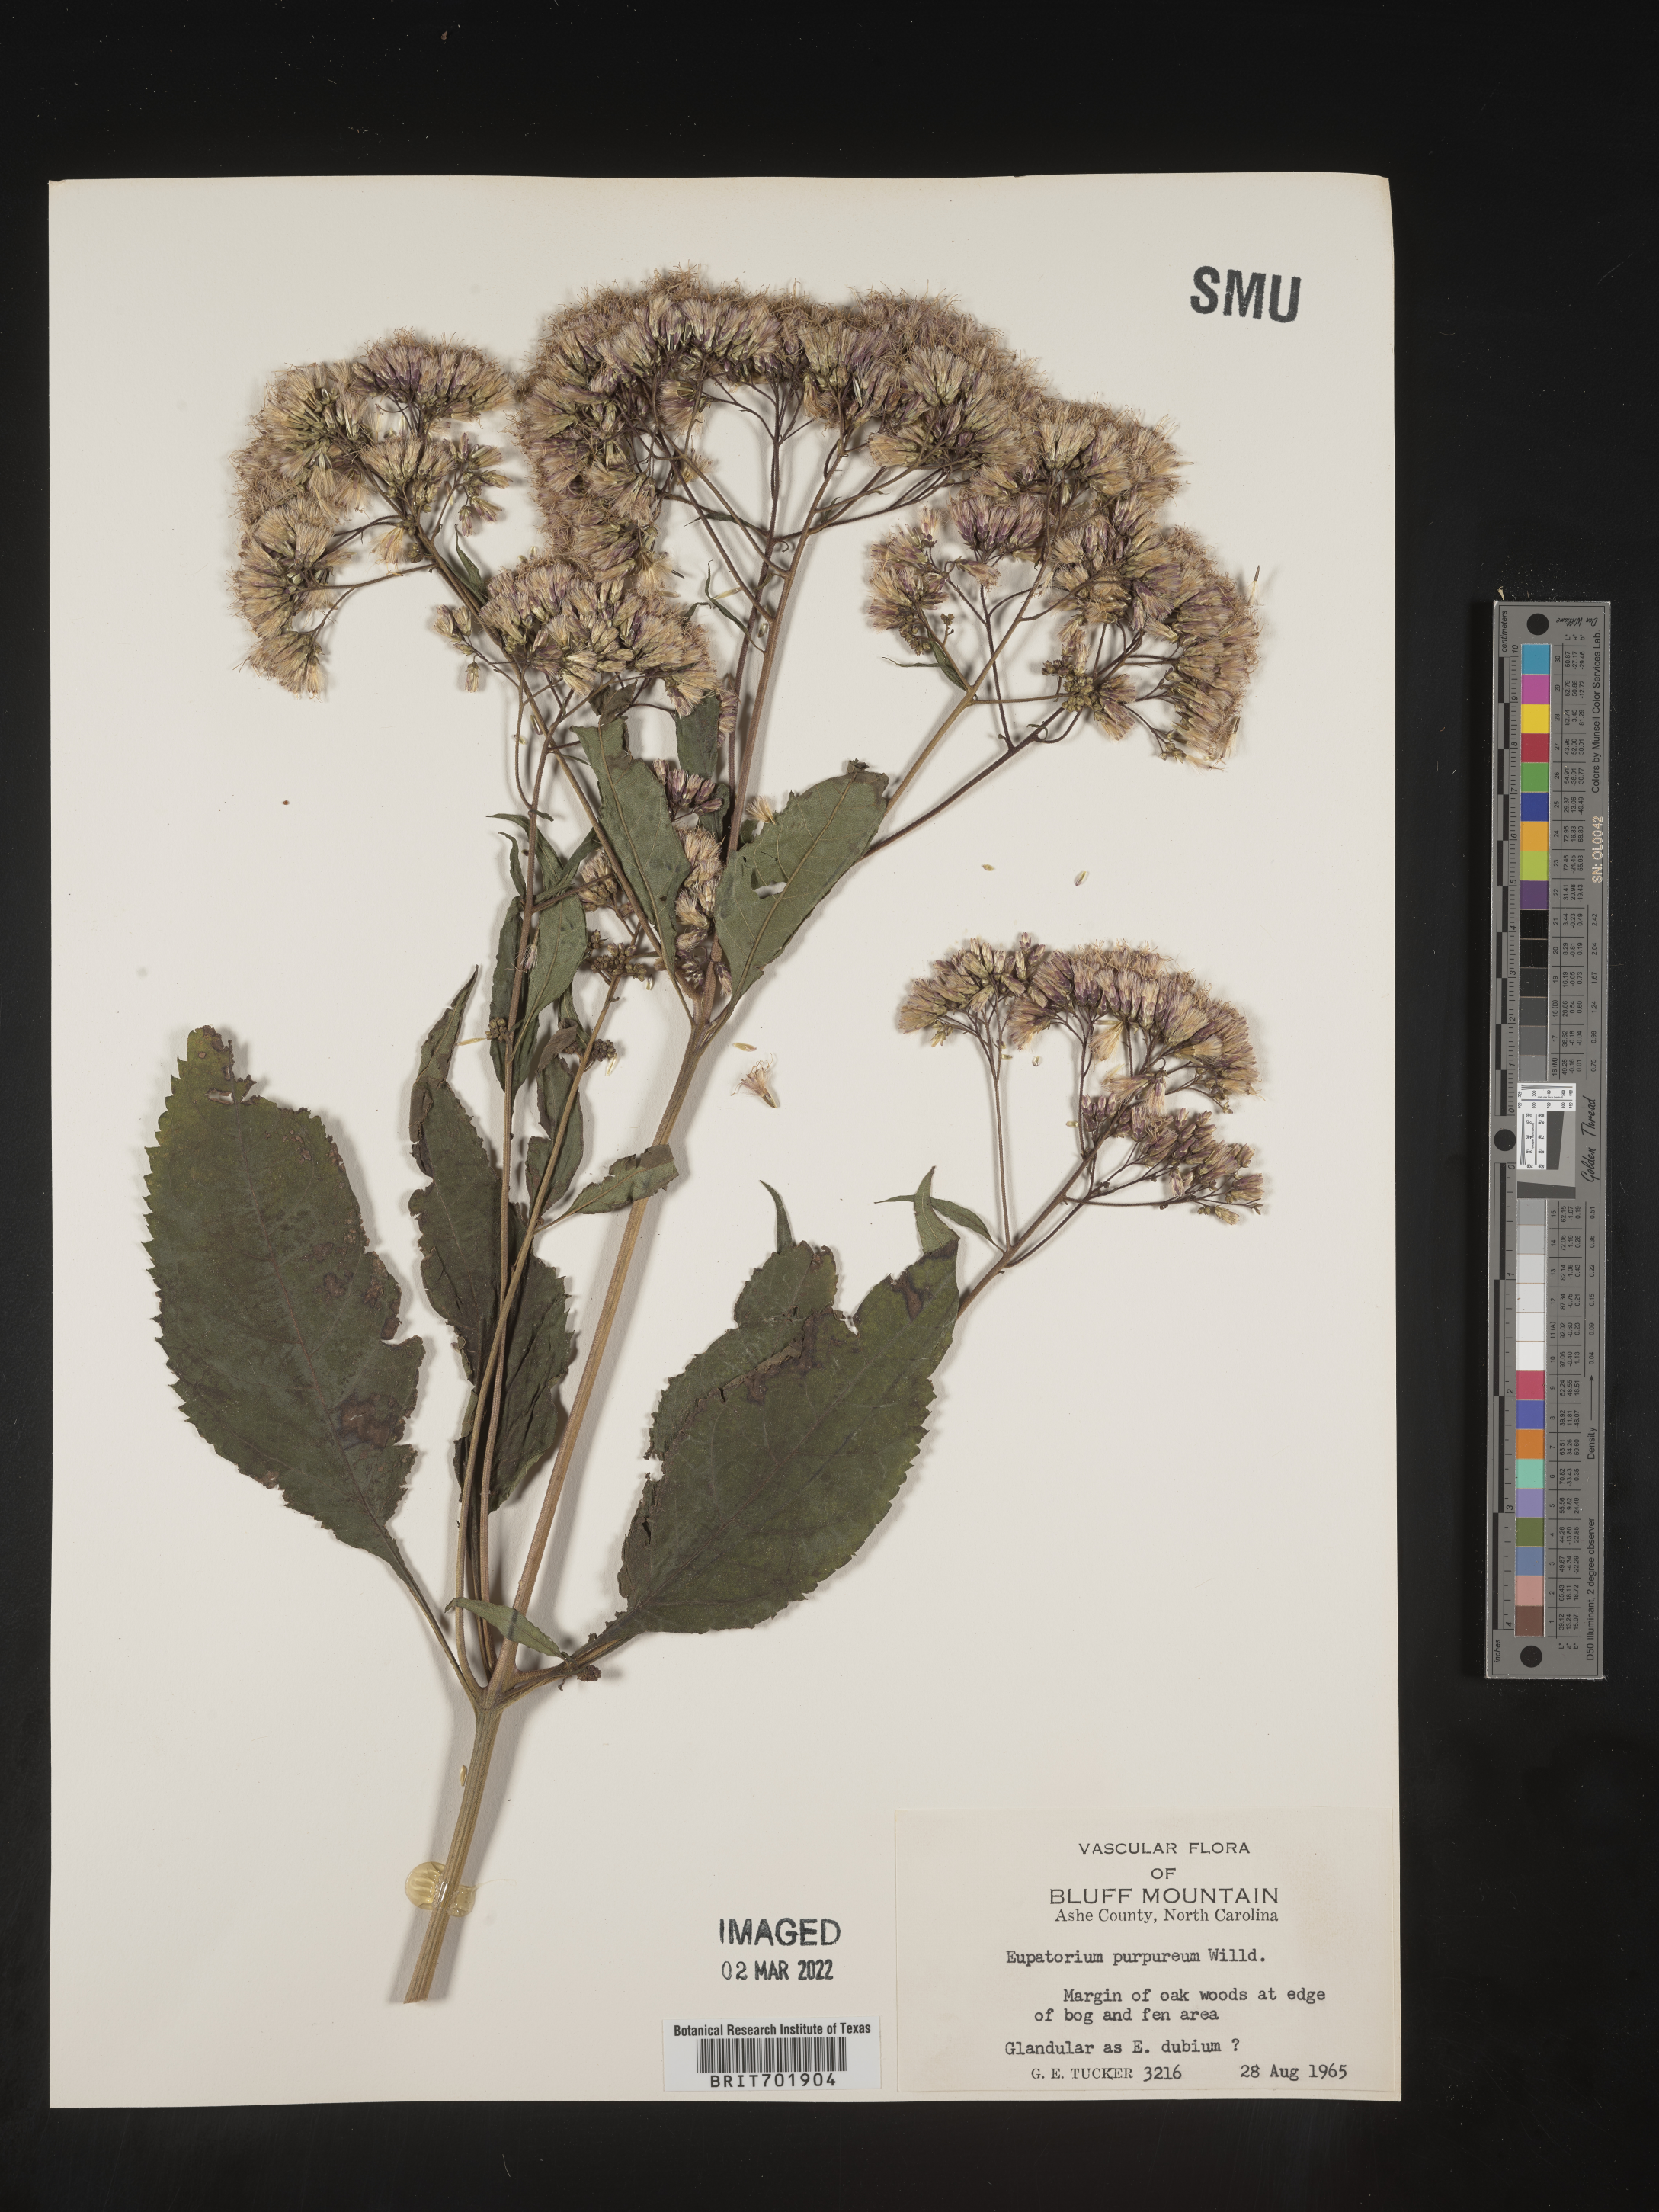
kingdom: Plantae
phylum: Tracheophyta
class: Magnoliopsida
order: Asterales
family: Asteraceae
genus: Eupatorium
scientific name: Eupatorium quaternum
